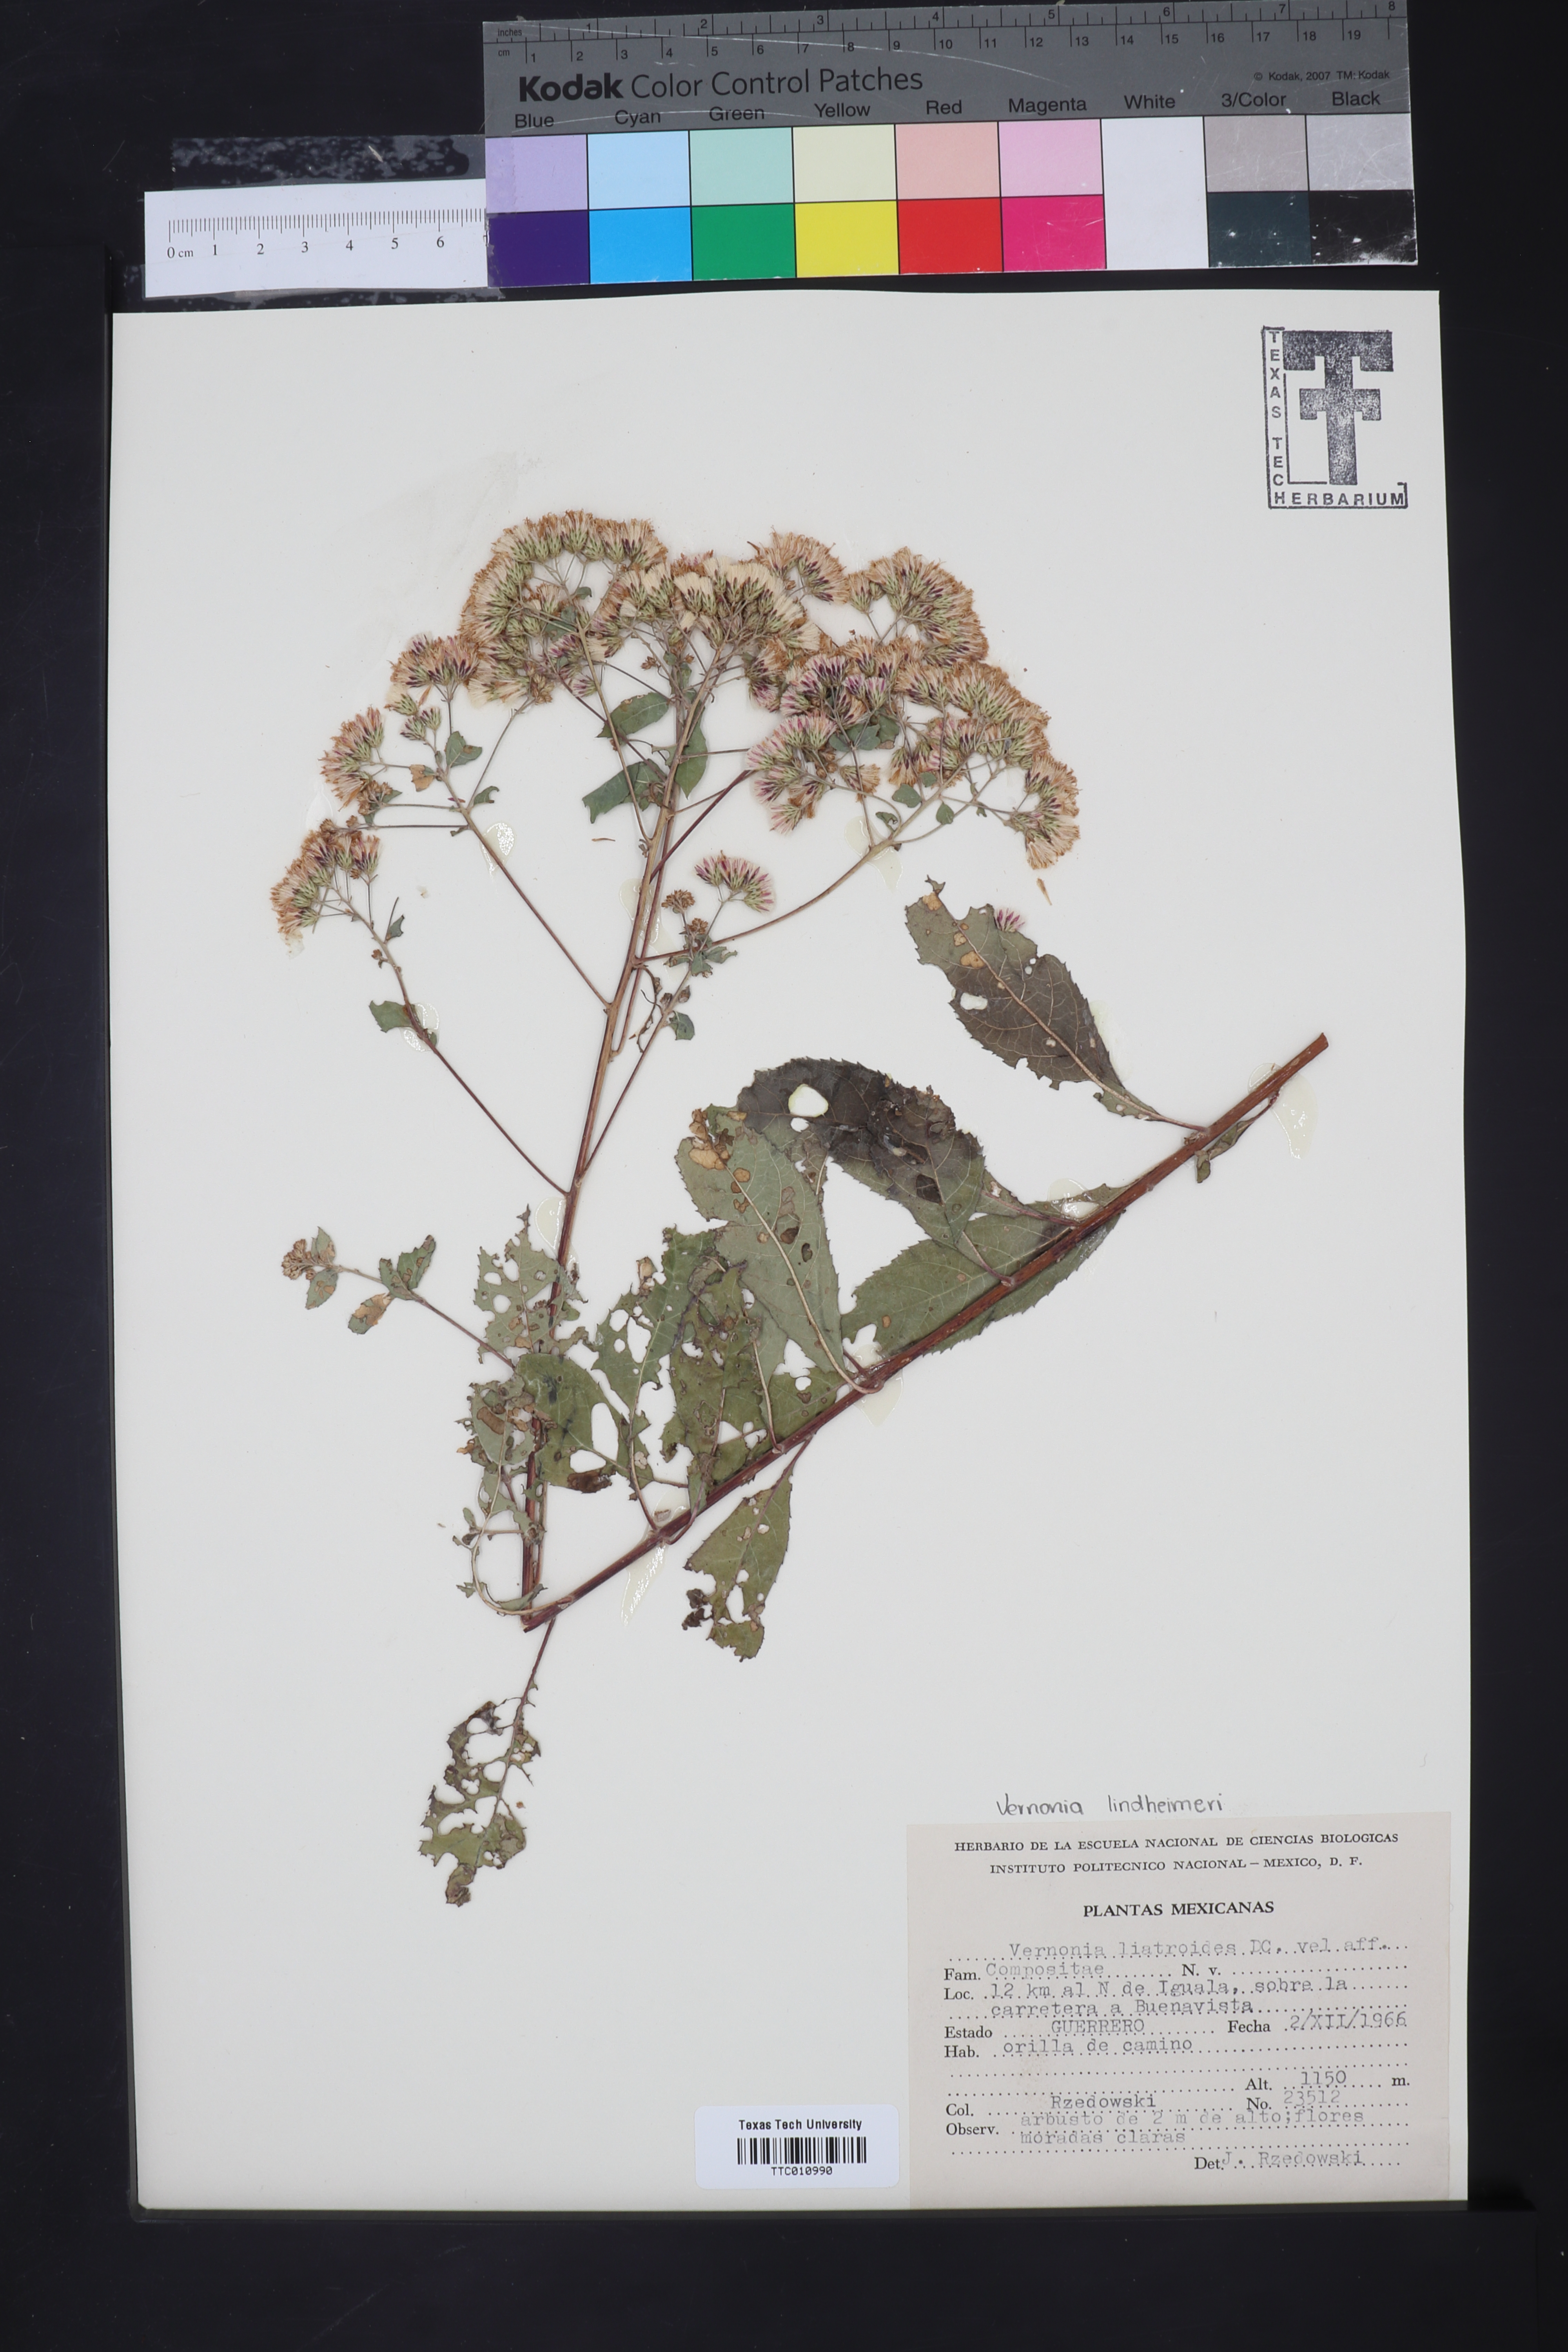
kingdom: Plantae
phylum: Tracheophyta
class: Magnoliopsida
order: Asterales
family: Asteraceae
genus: Vernonanthura
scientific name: Vernonanthura liatroides
